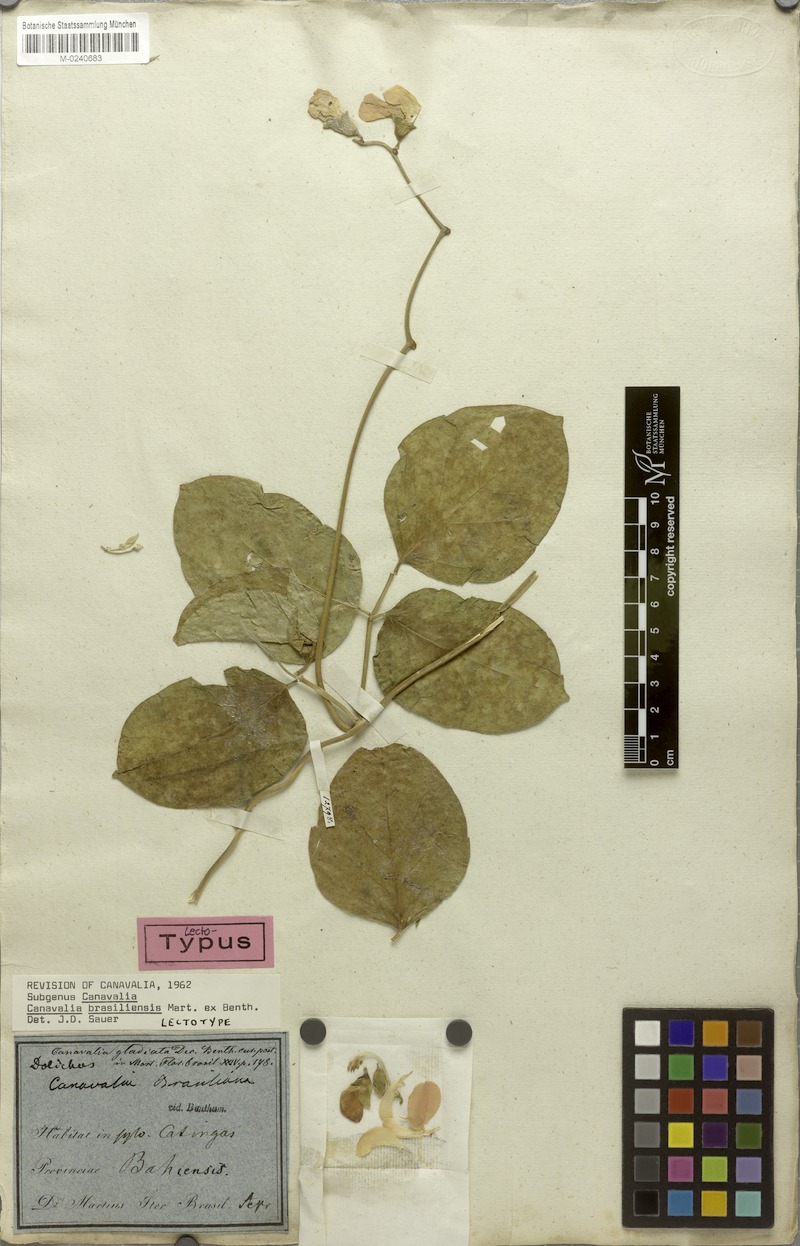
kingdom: Plantae
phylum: Tracheophyta
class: Magnoliopsida
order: Fabales
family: Fabaceae
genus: Canavalia
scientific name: Canavalia brasiliensis
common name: Barbicou-bean
